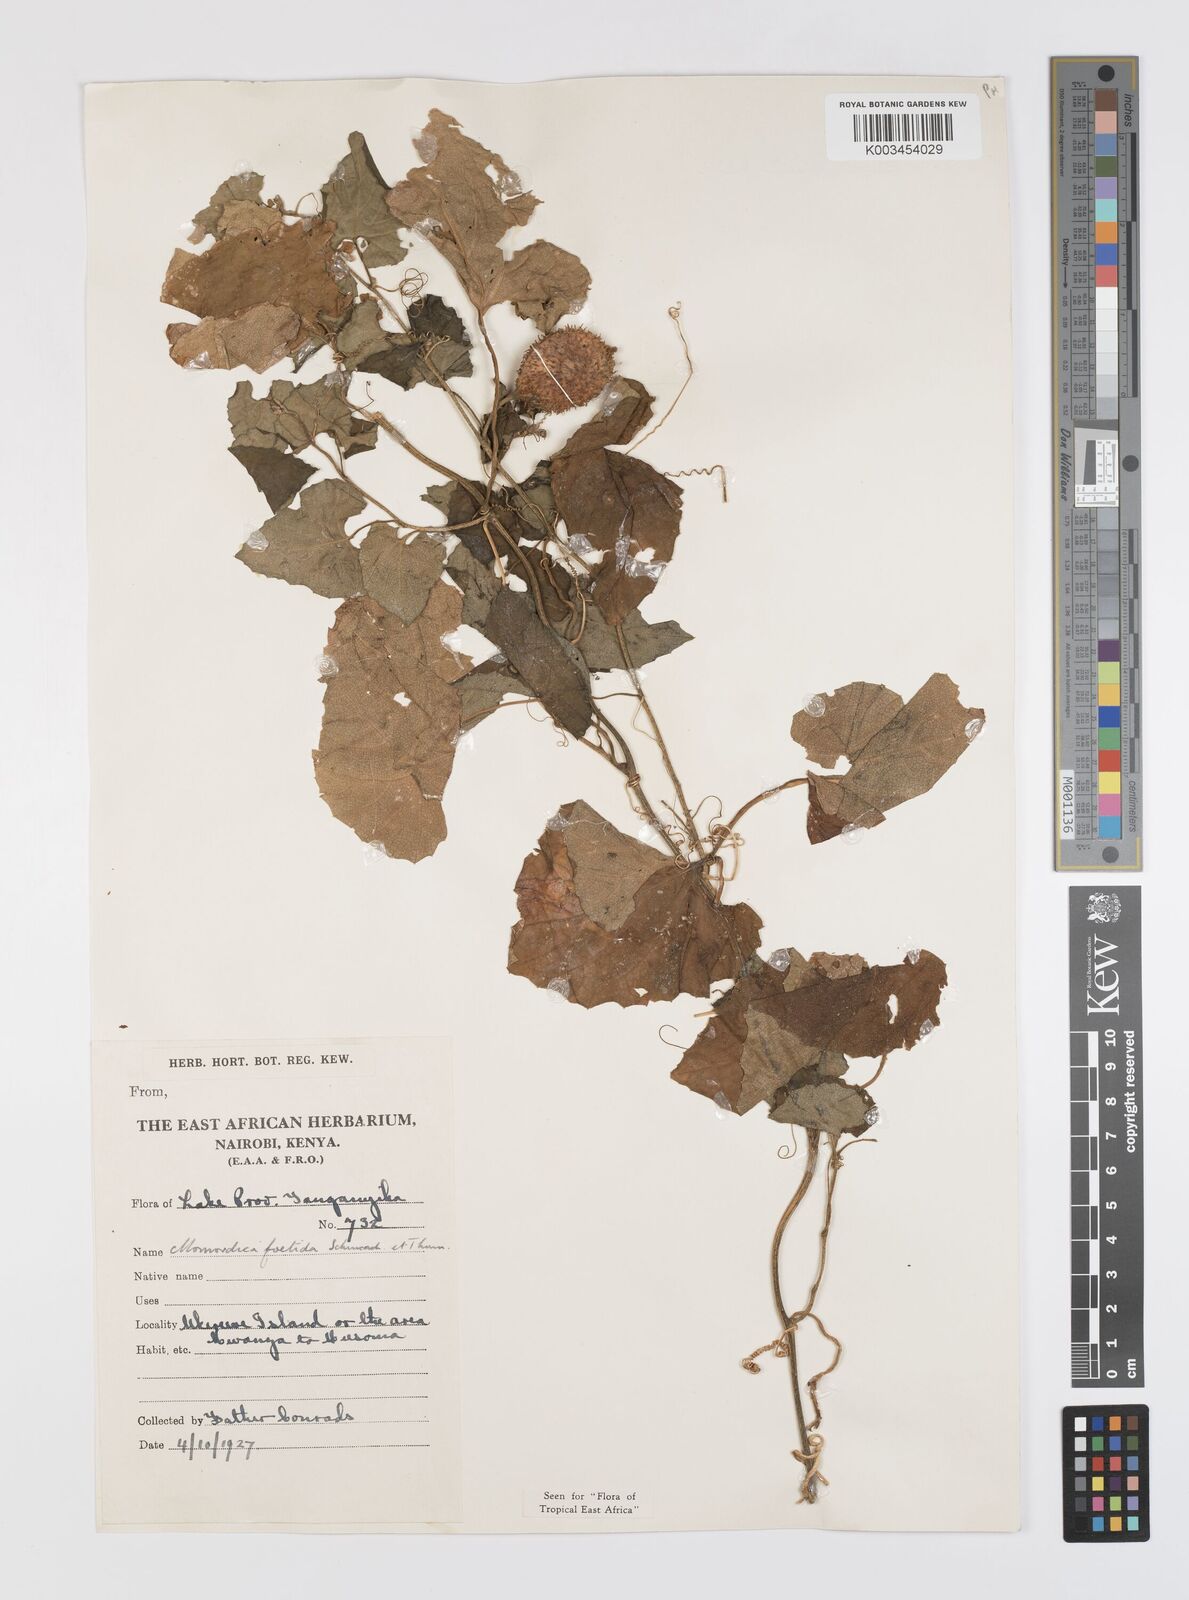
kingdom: Plantae
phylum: Tracheophyta
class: Magnoliopsida
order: Cucurbitales
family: Cucurbitaceae
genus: Momordica
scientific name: Momordica foetida
